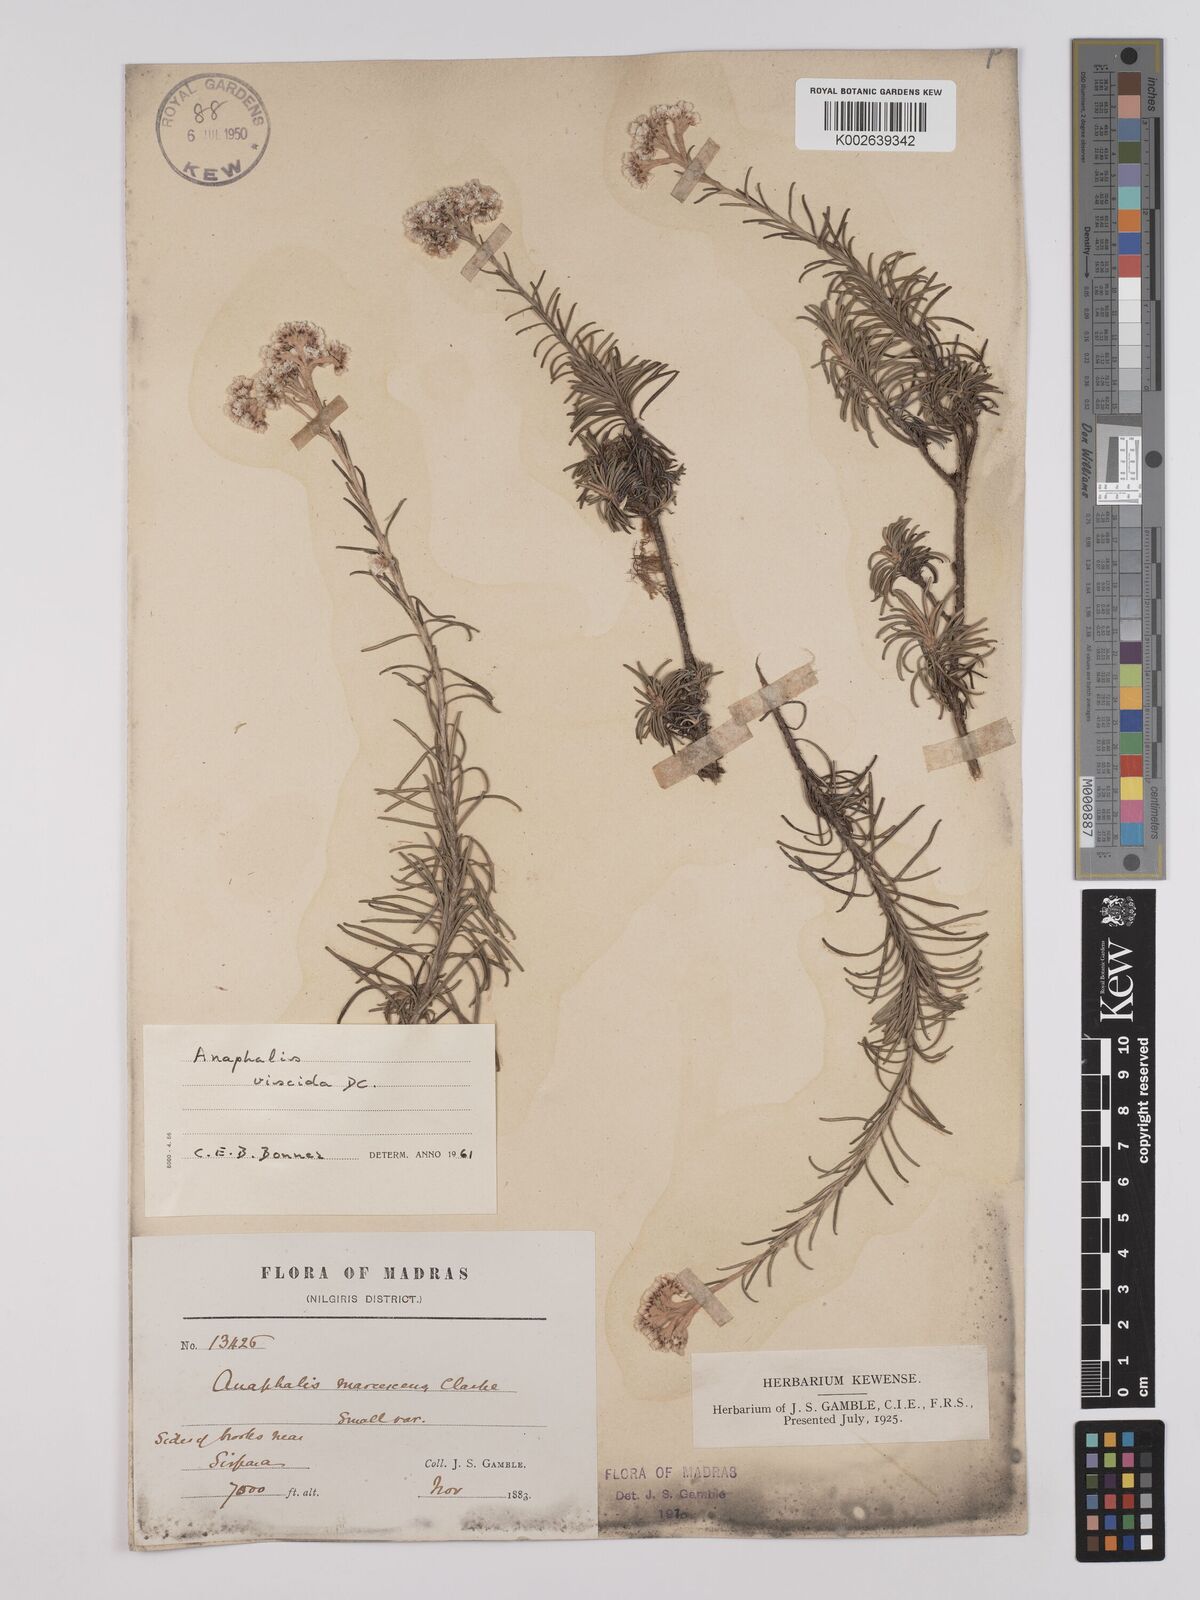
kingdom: Plantae
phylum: Tracheophyta
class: Magnoliopsida
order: Asterales
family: Asteraceae
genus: Anaphalis
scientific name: Anaphalis marcescens
